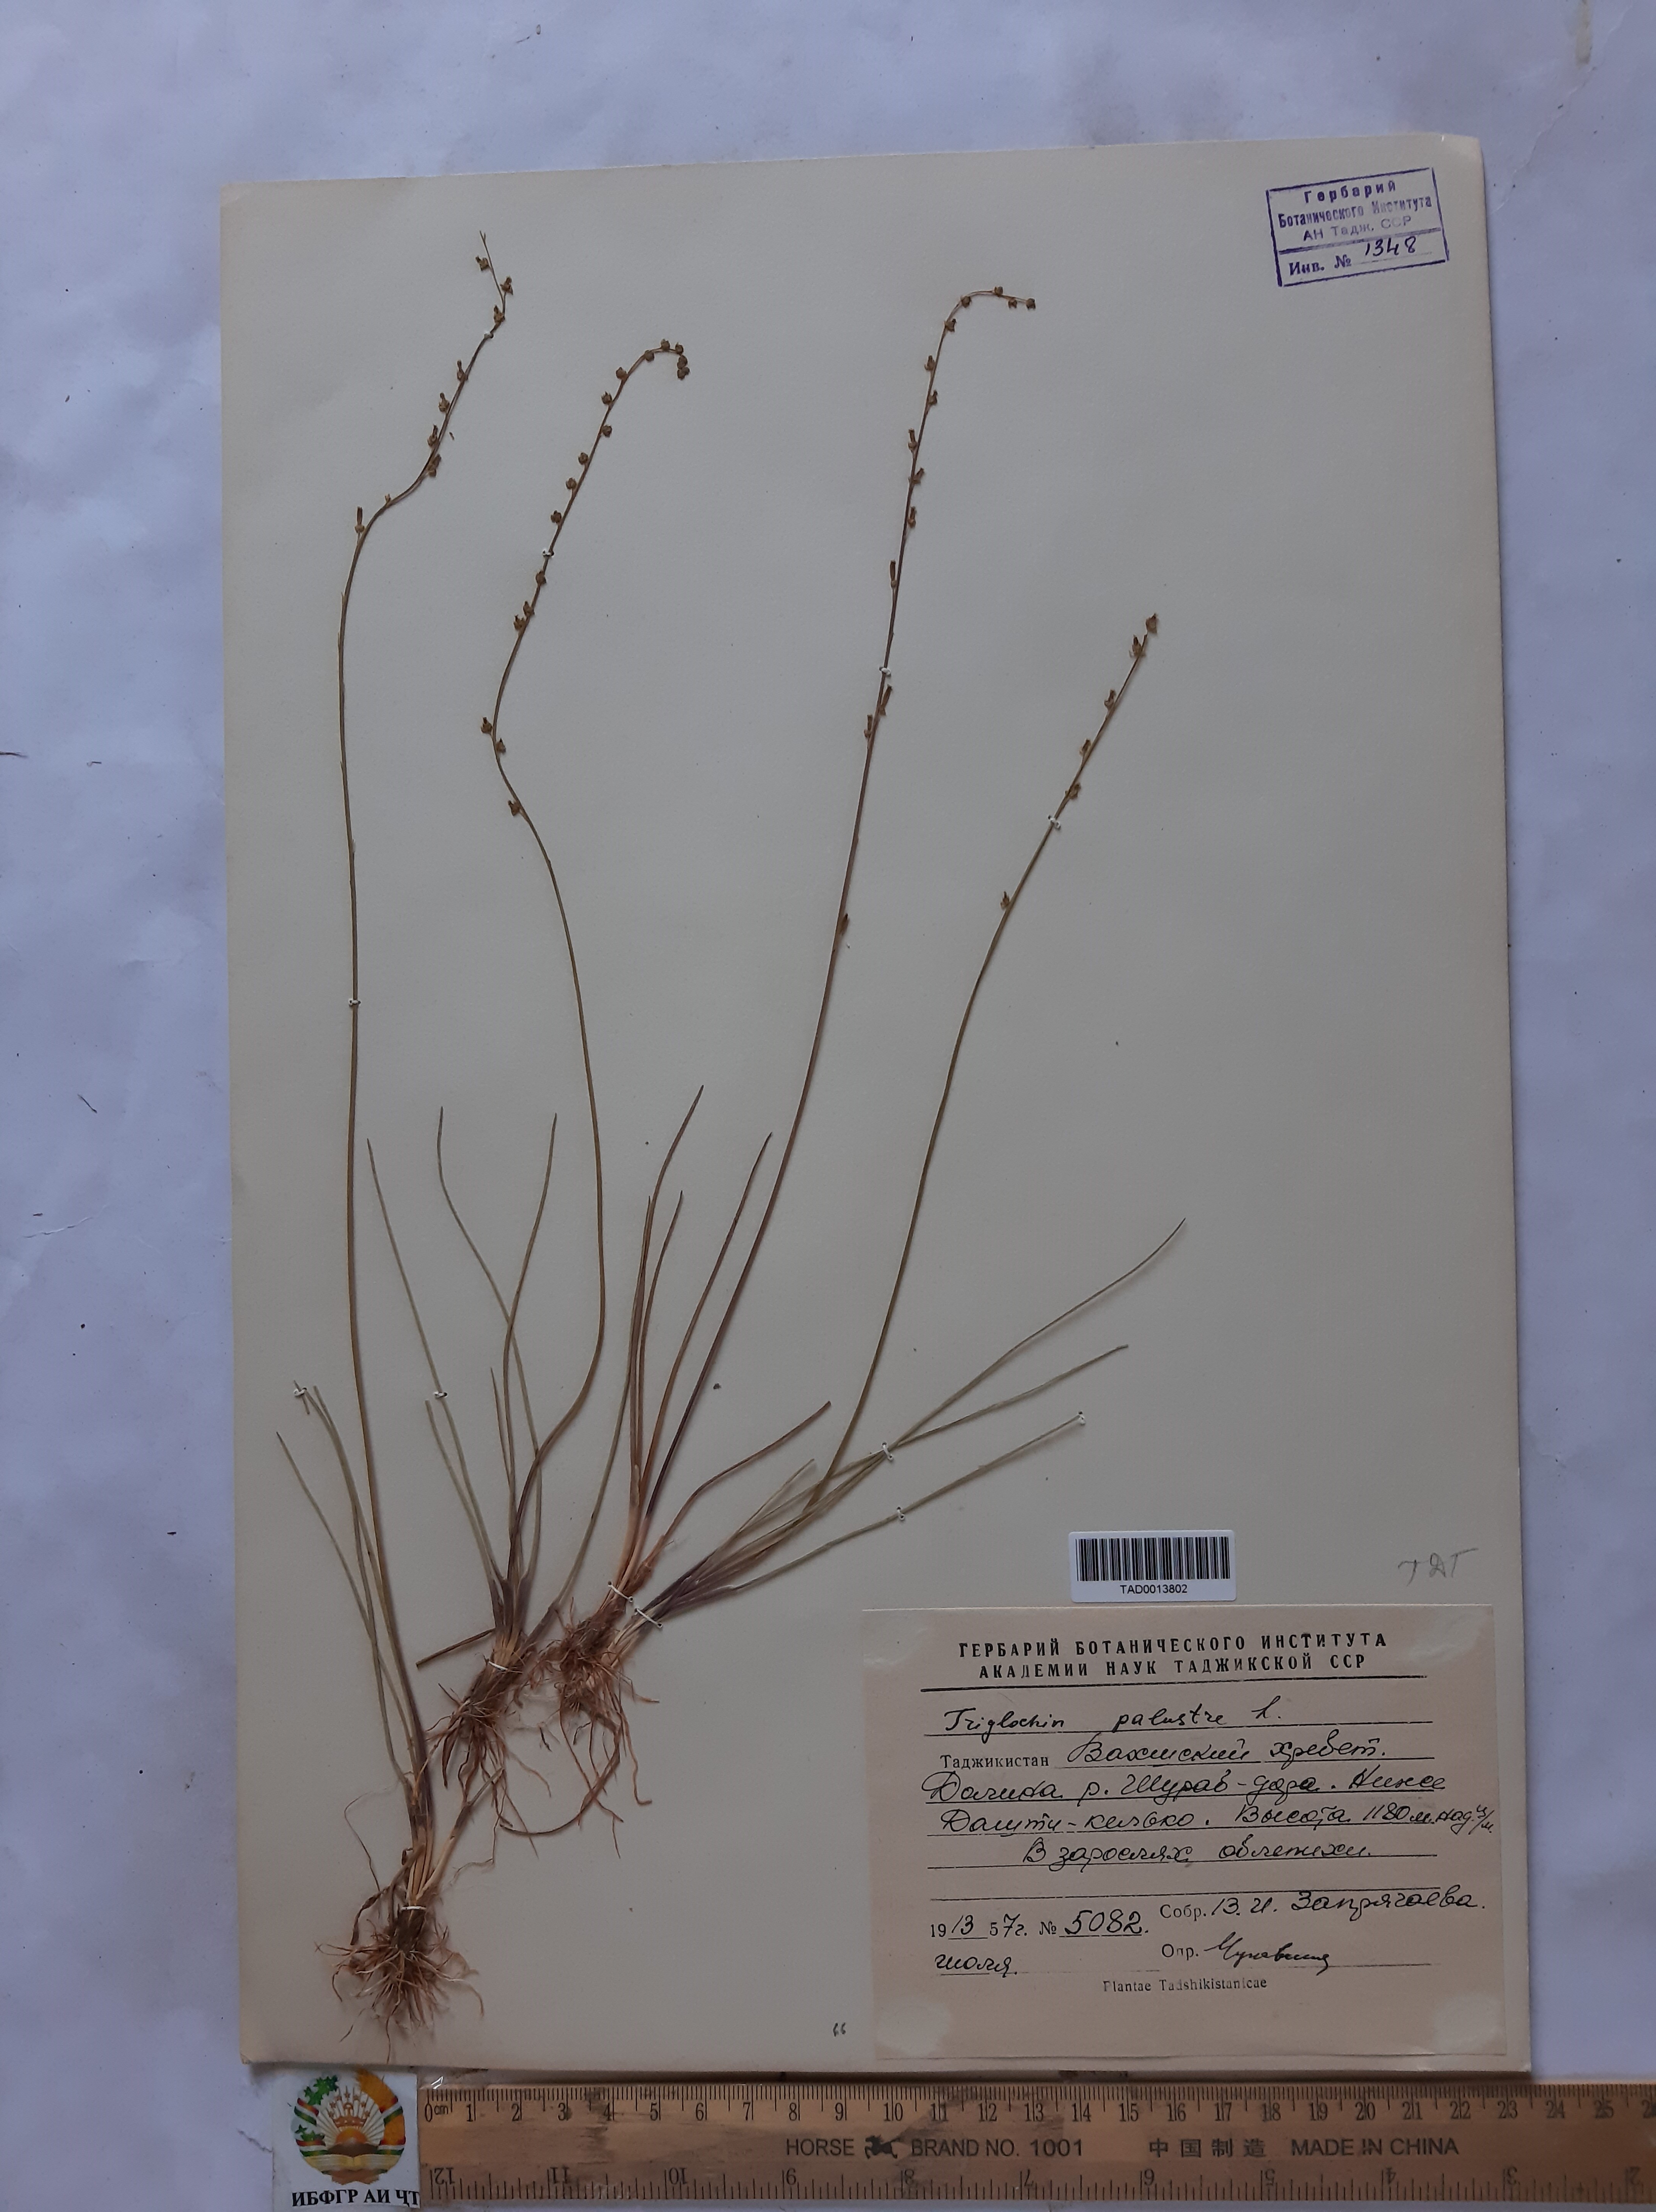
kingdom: Plantae
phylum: Tracheophyta
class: Liliopsida
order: Alismatales
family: Juncaginaceae
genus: Triglochin
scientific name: Triglochin palustris
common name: Marsh arrowgrass
